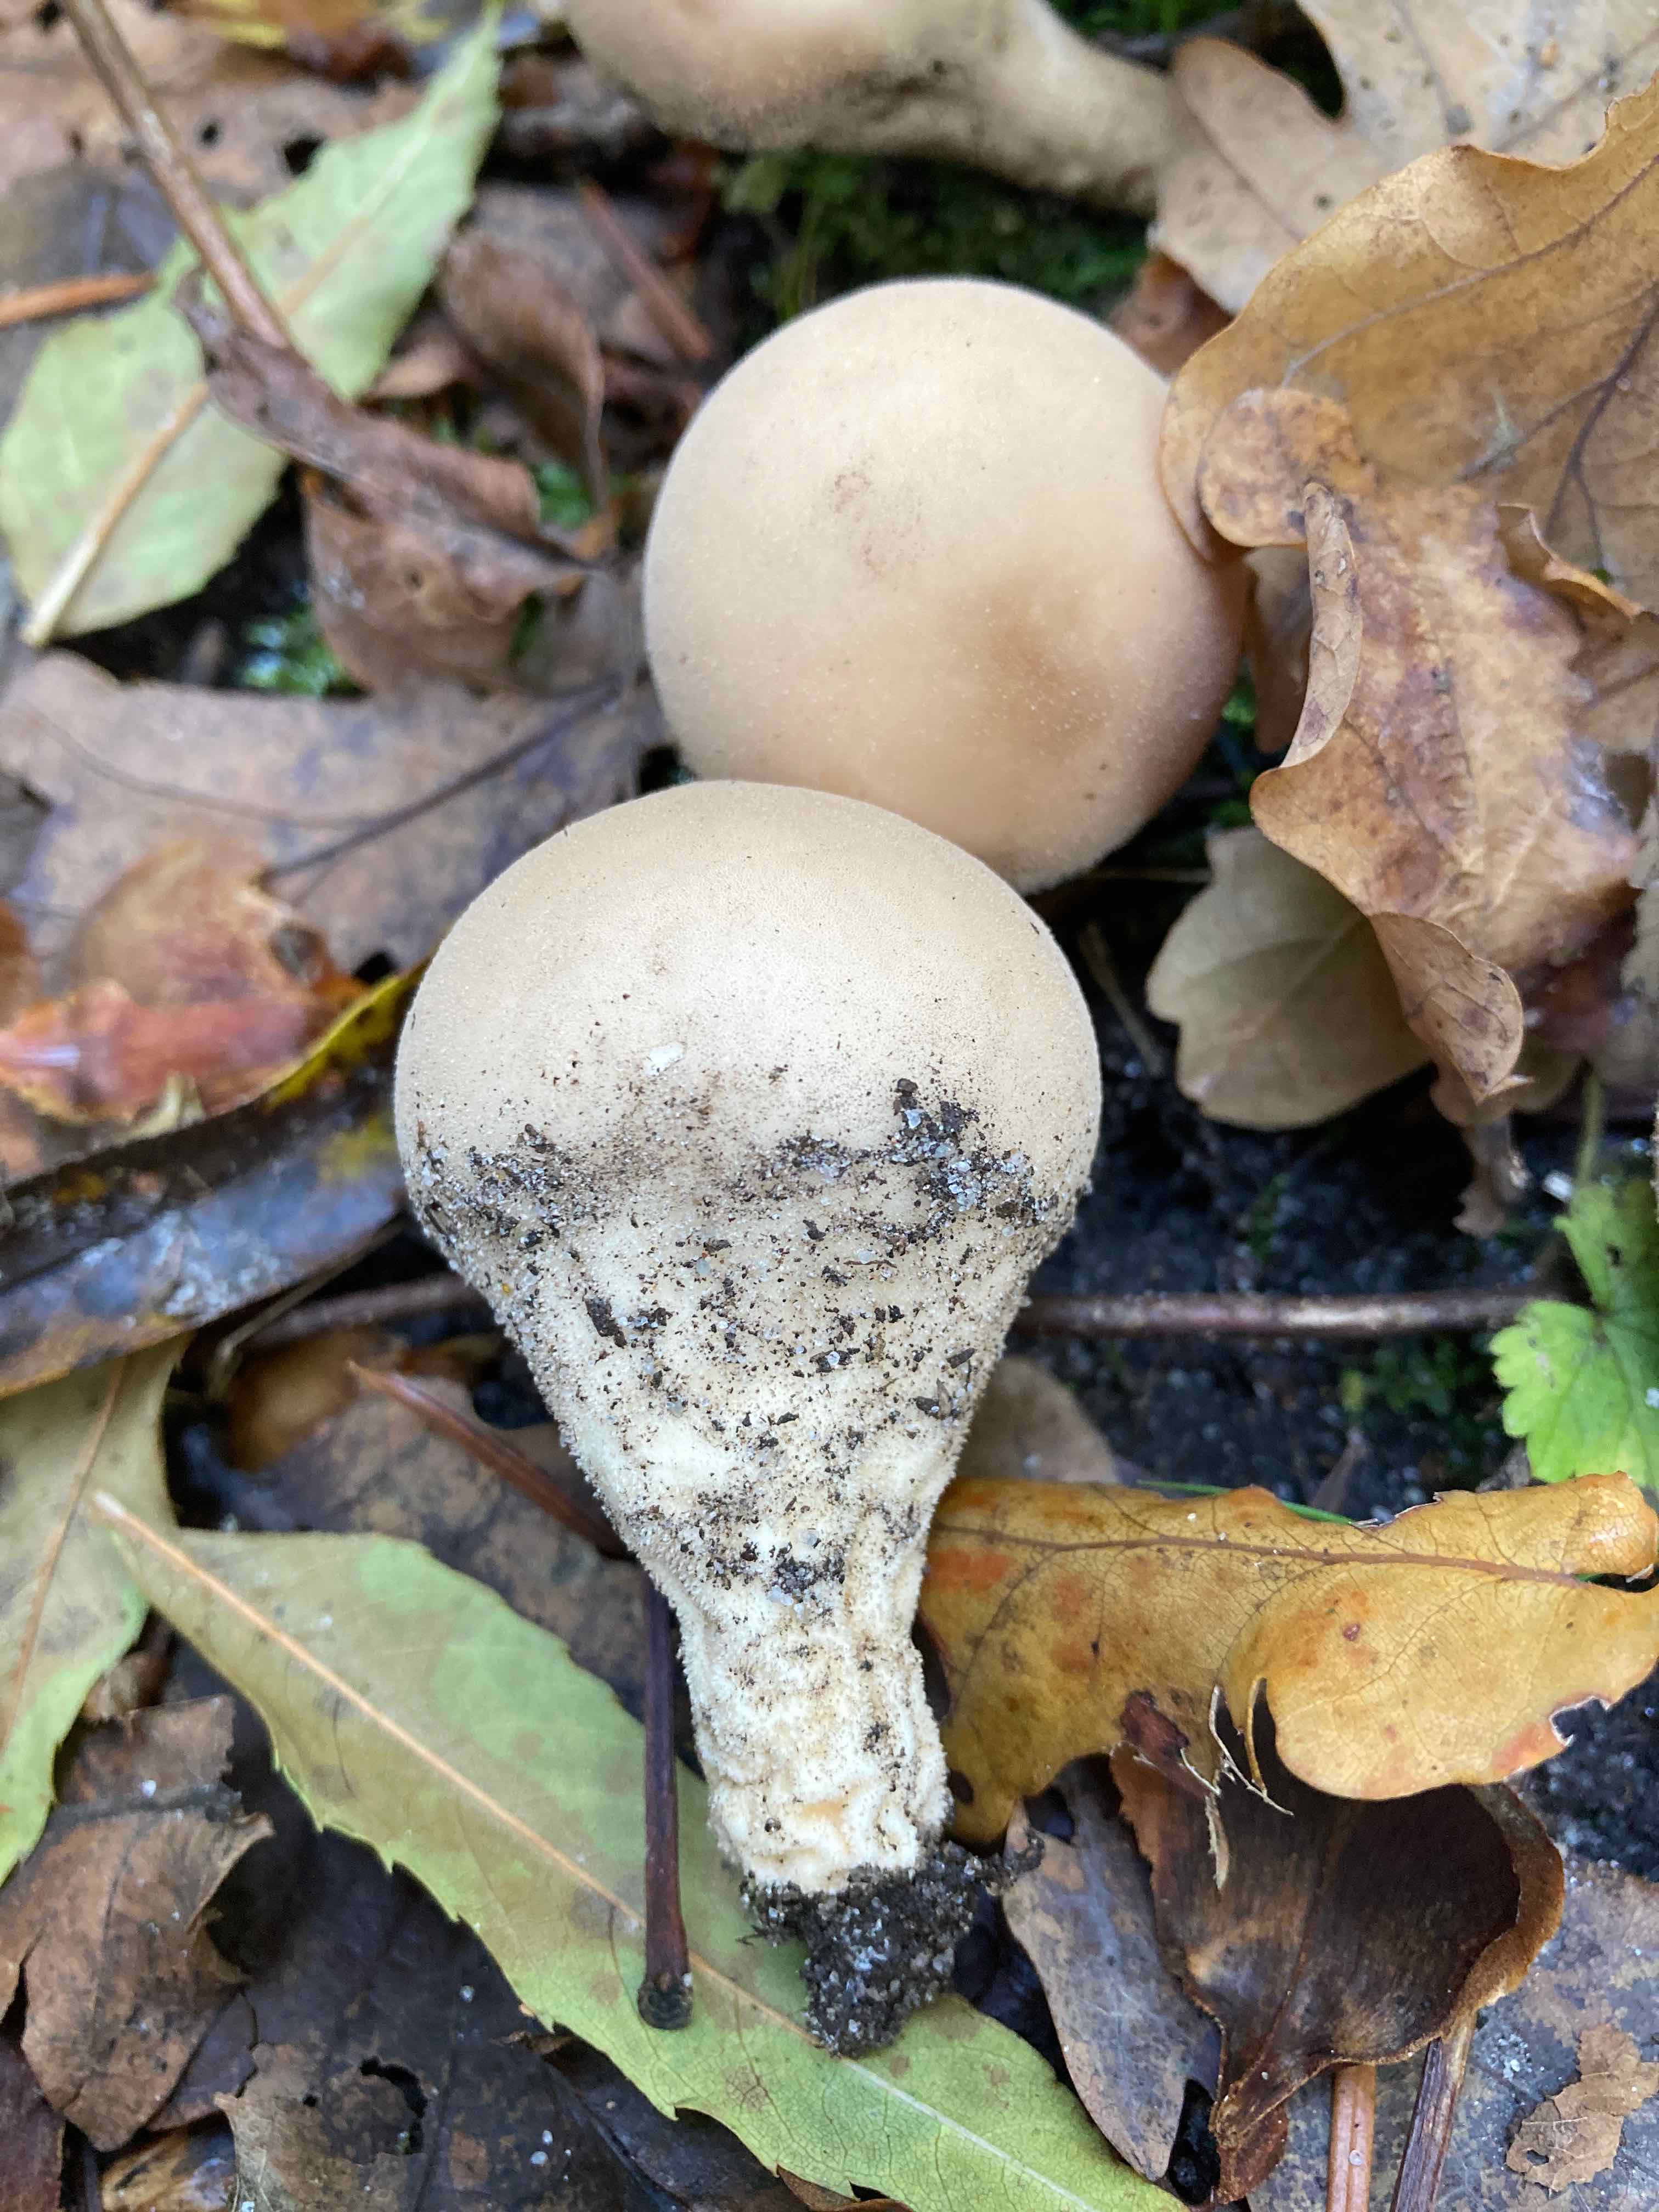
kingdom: Fungi
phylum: Basidiomycota
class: Agaricomycetes
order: Agaricales
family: Lycoperdaceae
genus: Apioperdon
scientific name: Apioperdon pyriforme
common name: pære-støvbold
